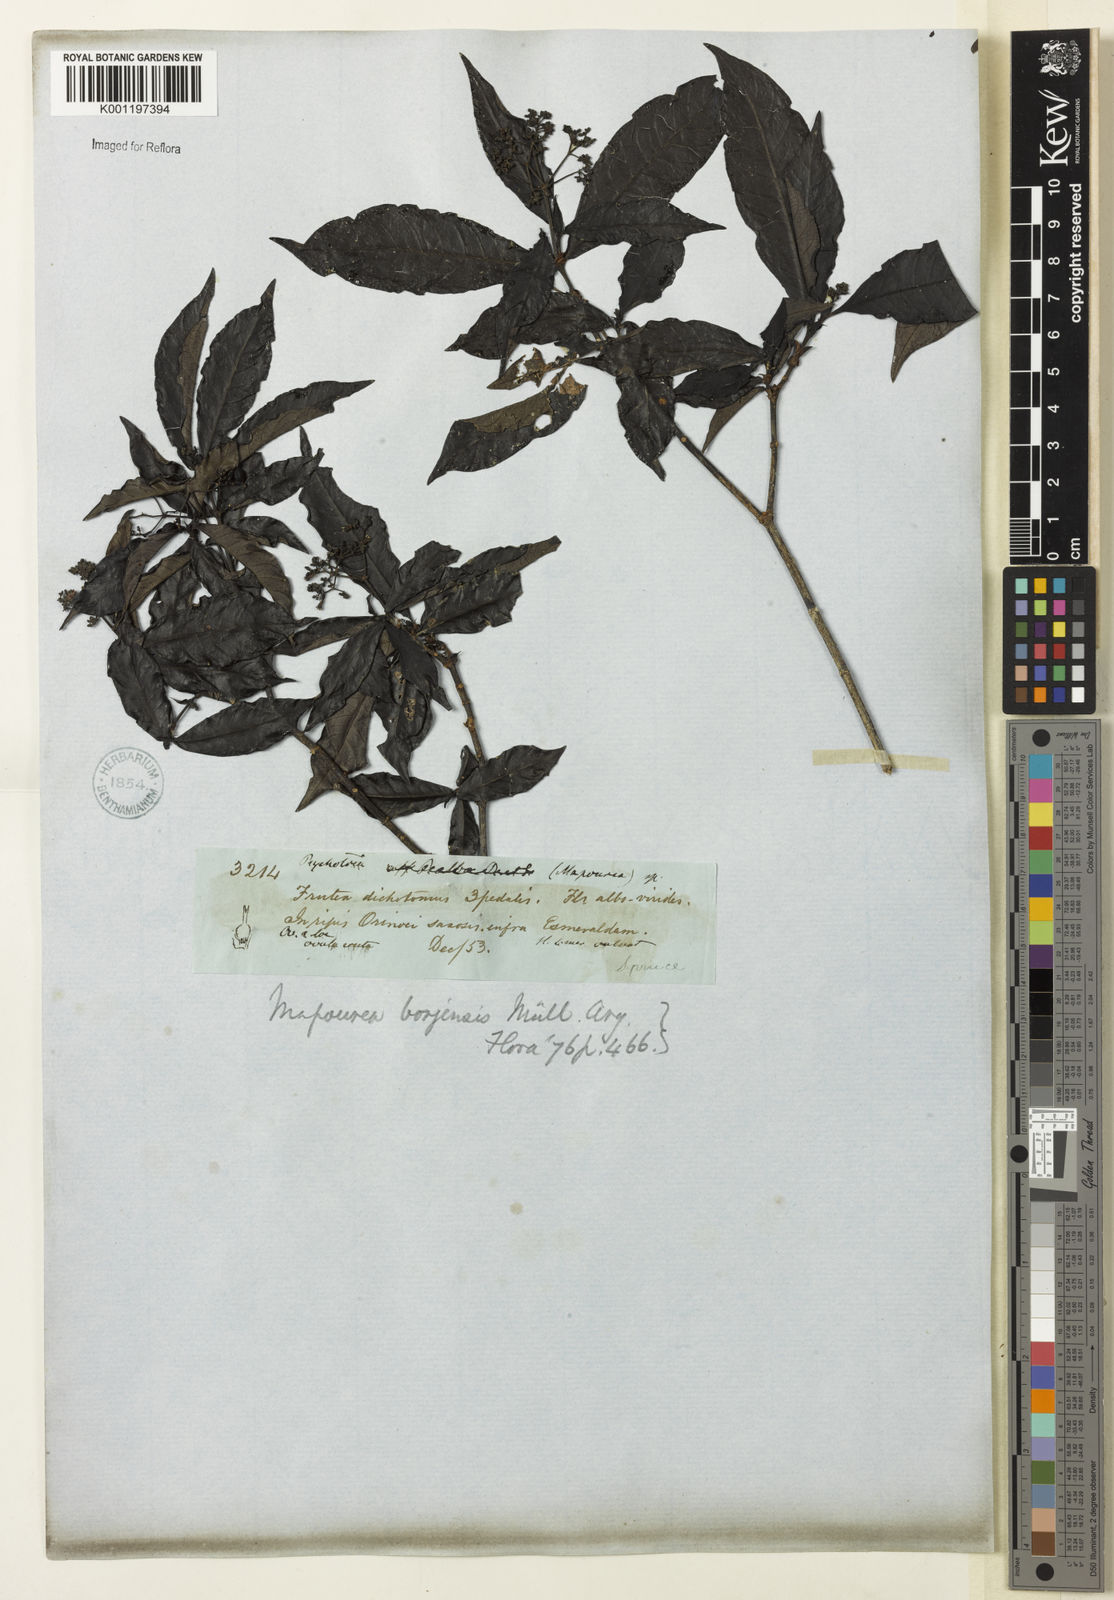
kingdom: Plantae
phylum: Tracheophyta
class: Magnoliopsida
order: Gentianales
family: Rubiaceae
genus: Psychotria
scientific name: Psychotria borjensis
